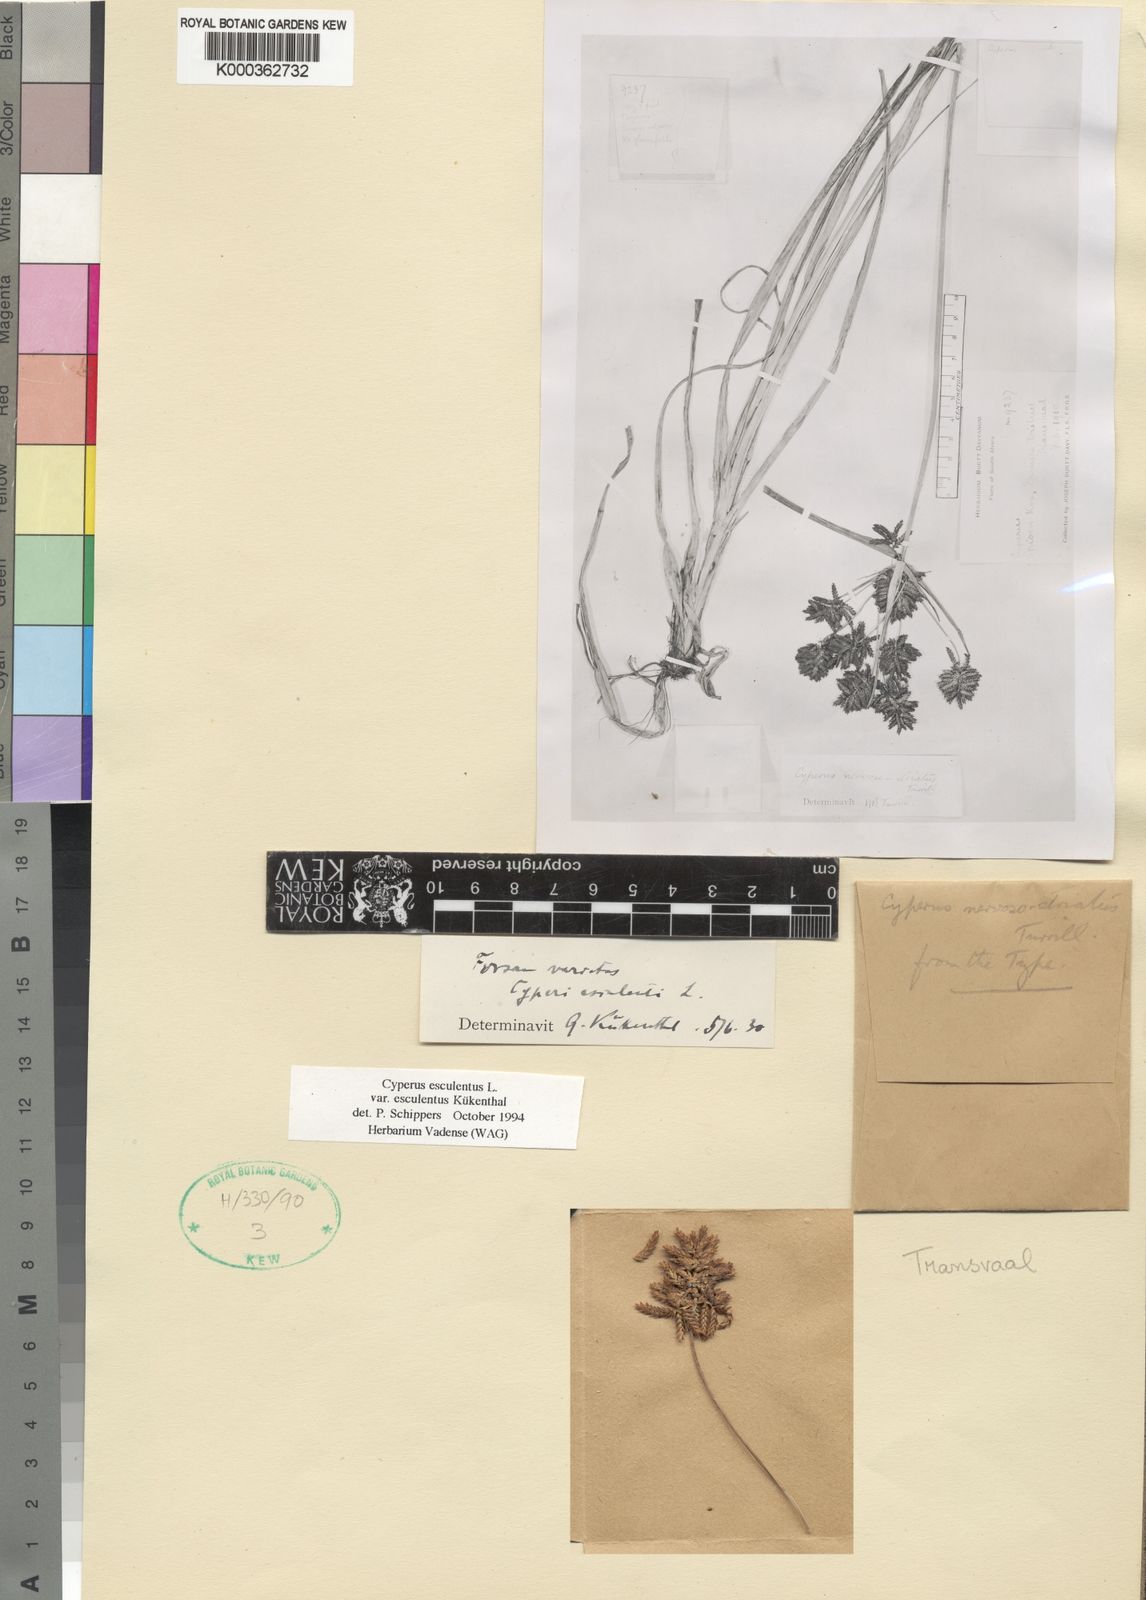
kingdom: Plantae
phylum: Tracheophyta
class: Liliopsida
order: Poales
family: Cyperaceae
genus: Cyperus
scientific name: Cyperus esculentus
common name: Yellow nutsedge
